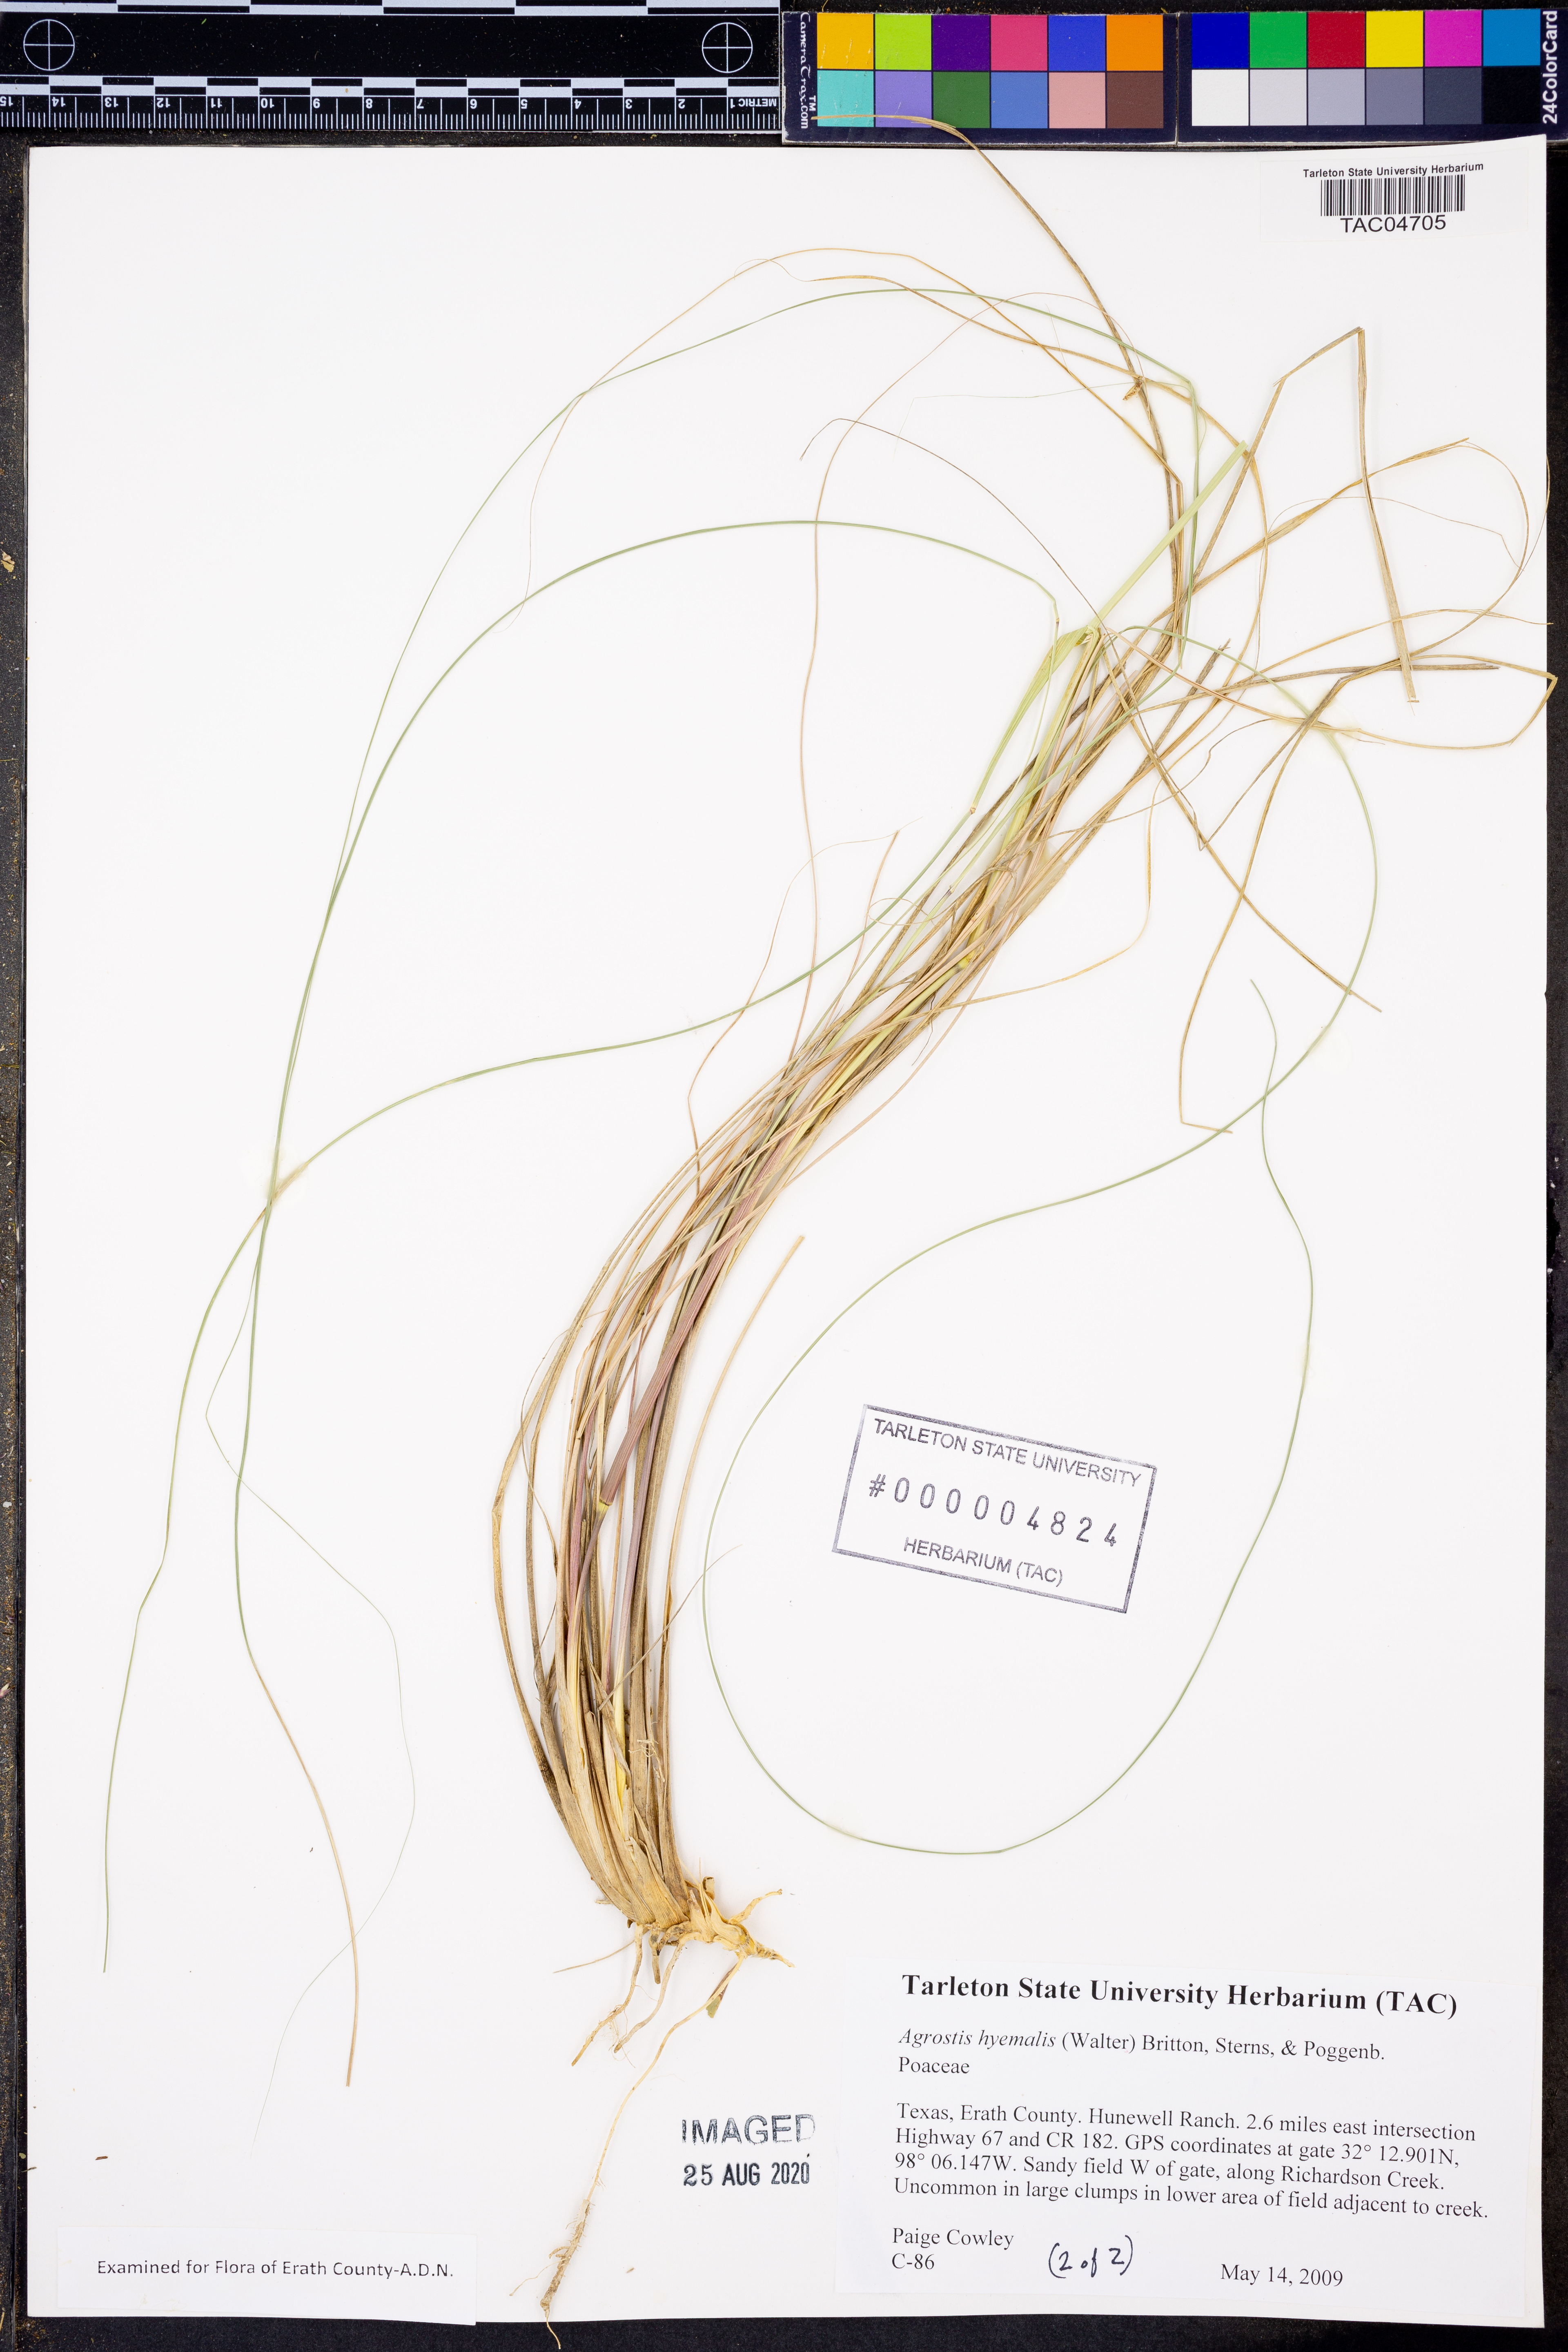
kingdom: Plantae
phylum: Tracheophyta
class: Liliopsida
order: Poales
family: Poaceae
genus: Agrostis
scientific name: Agrostis hyemalis
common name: Small bent
